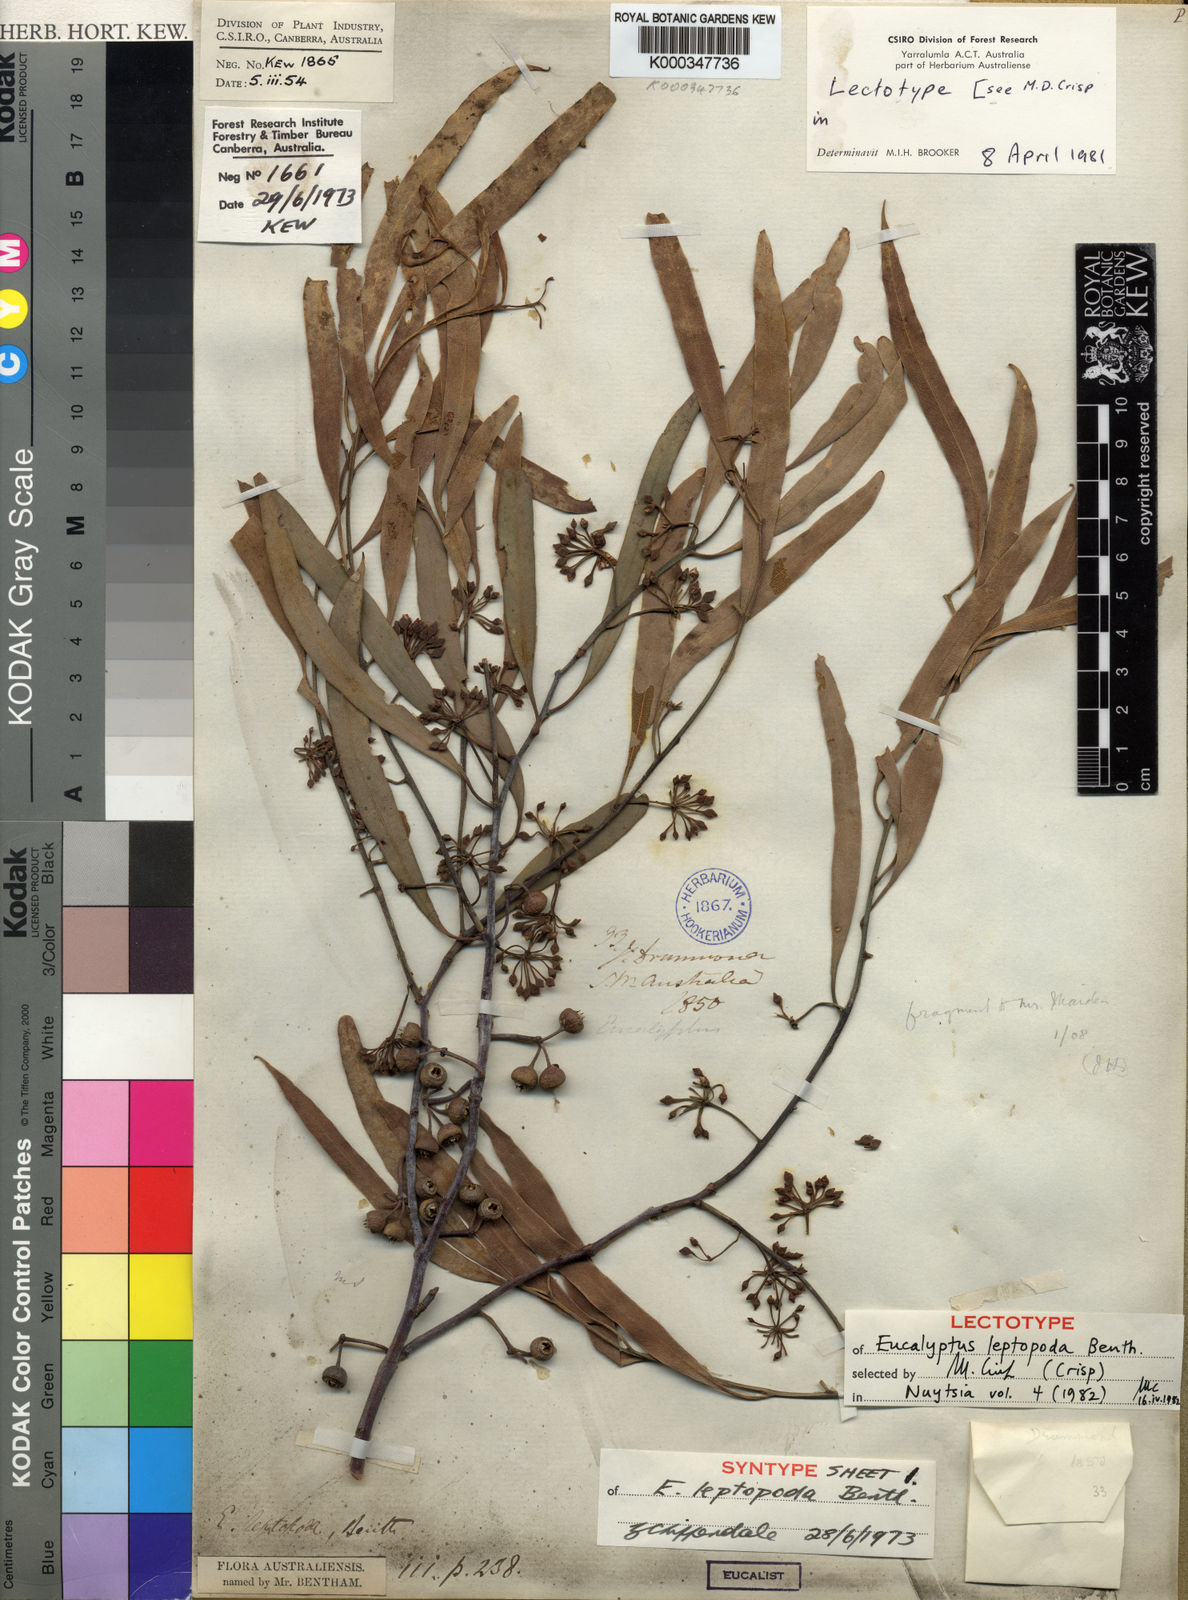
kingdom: Plantae
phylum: Tracheophyta
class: Magnoliopsida
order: Myrtales
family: Myrtaceae
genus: Eucalyptus
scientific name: Eucalyptus leptopoda
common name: Tammin mallee
